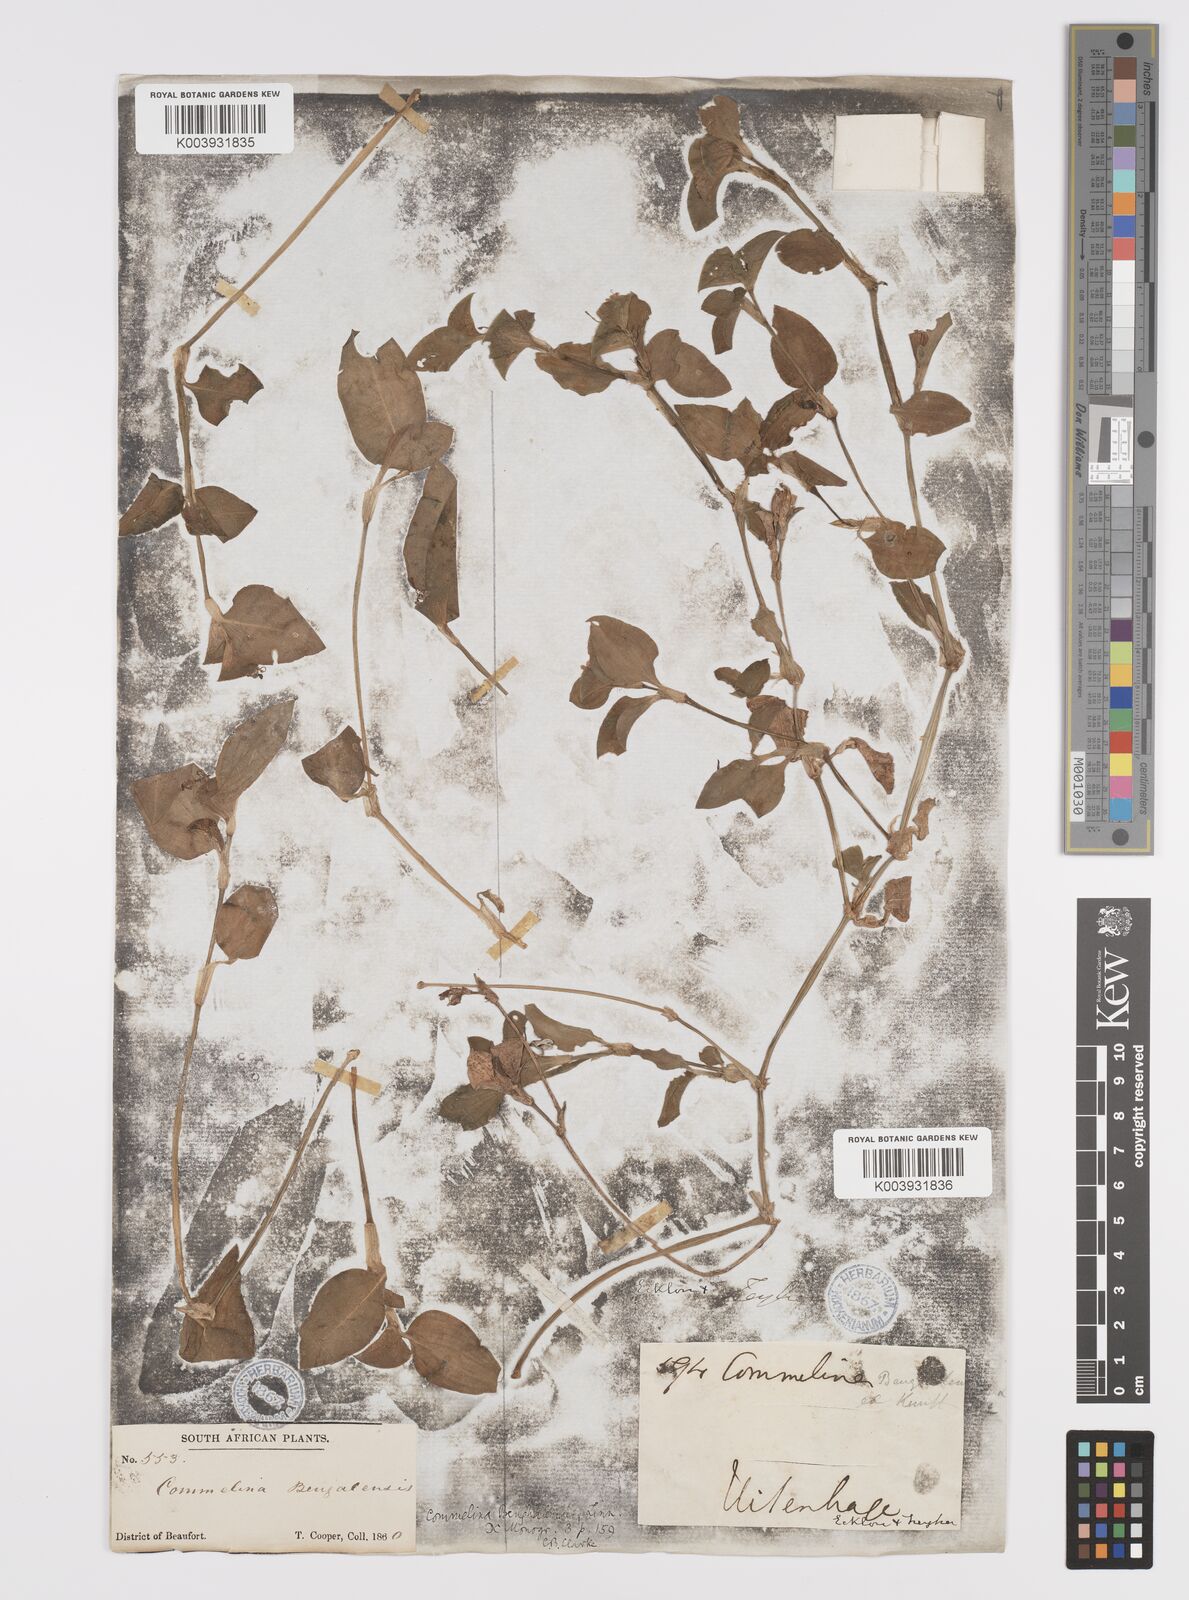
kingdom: Plantae
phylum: Tracheophyta
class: Liliopsida
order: Commelinales
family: Commelinaceae
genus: Commelina
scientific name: Commelina benghalensis
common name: Jio
